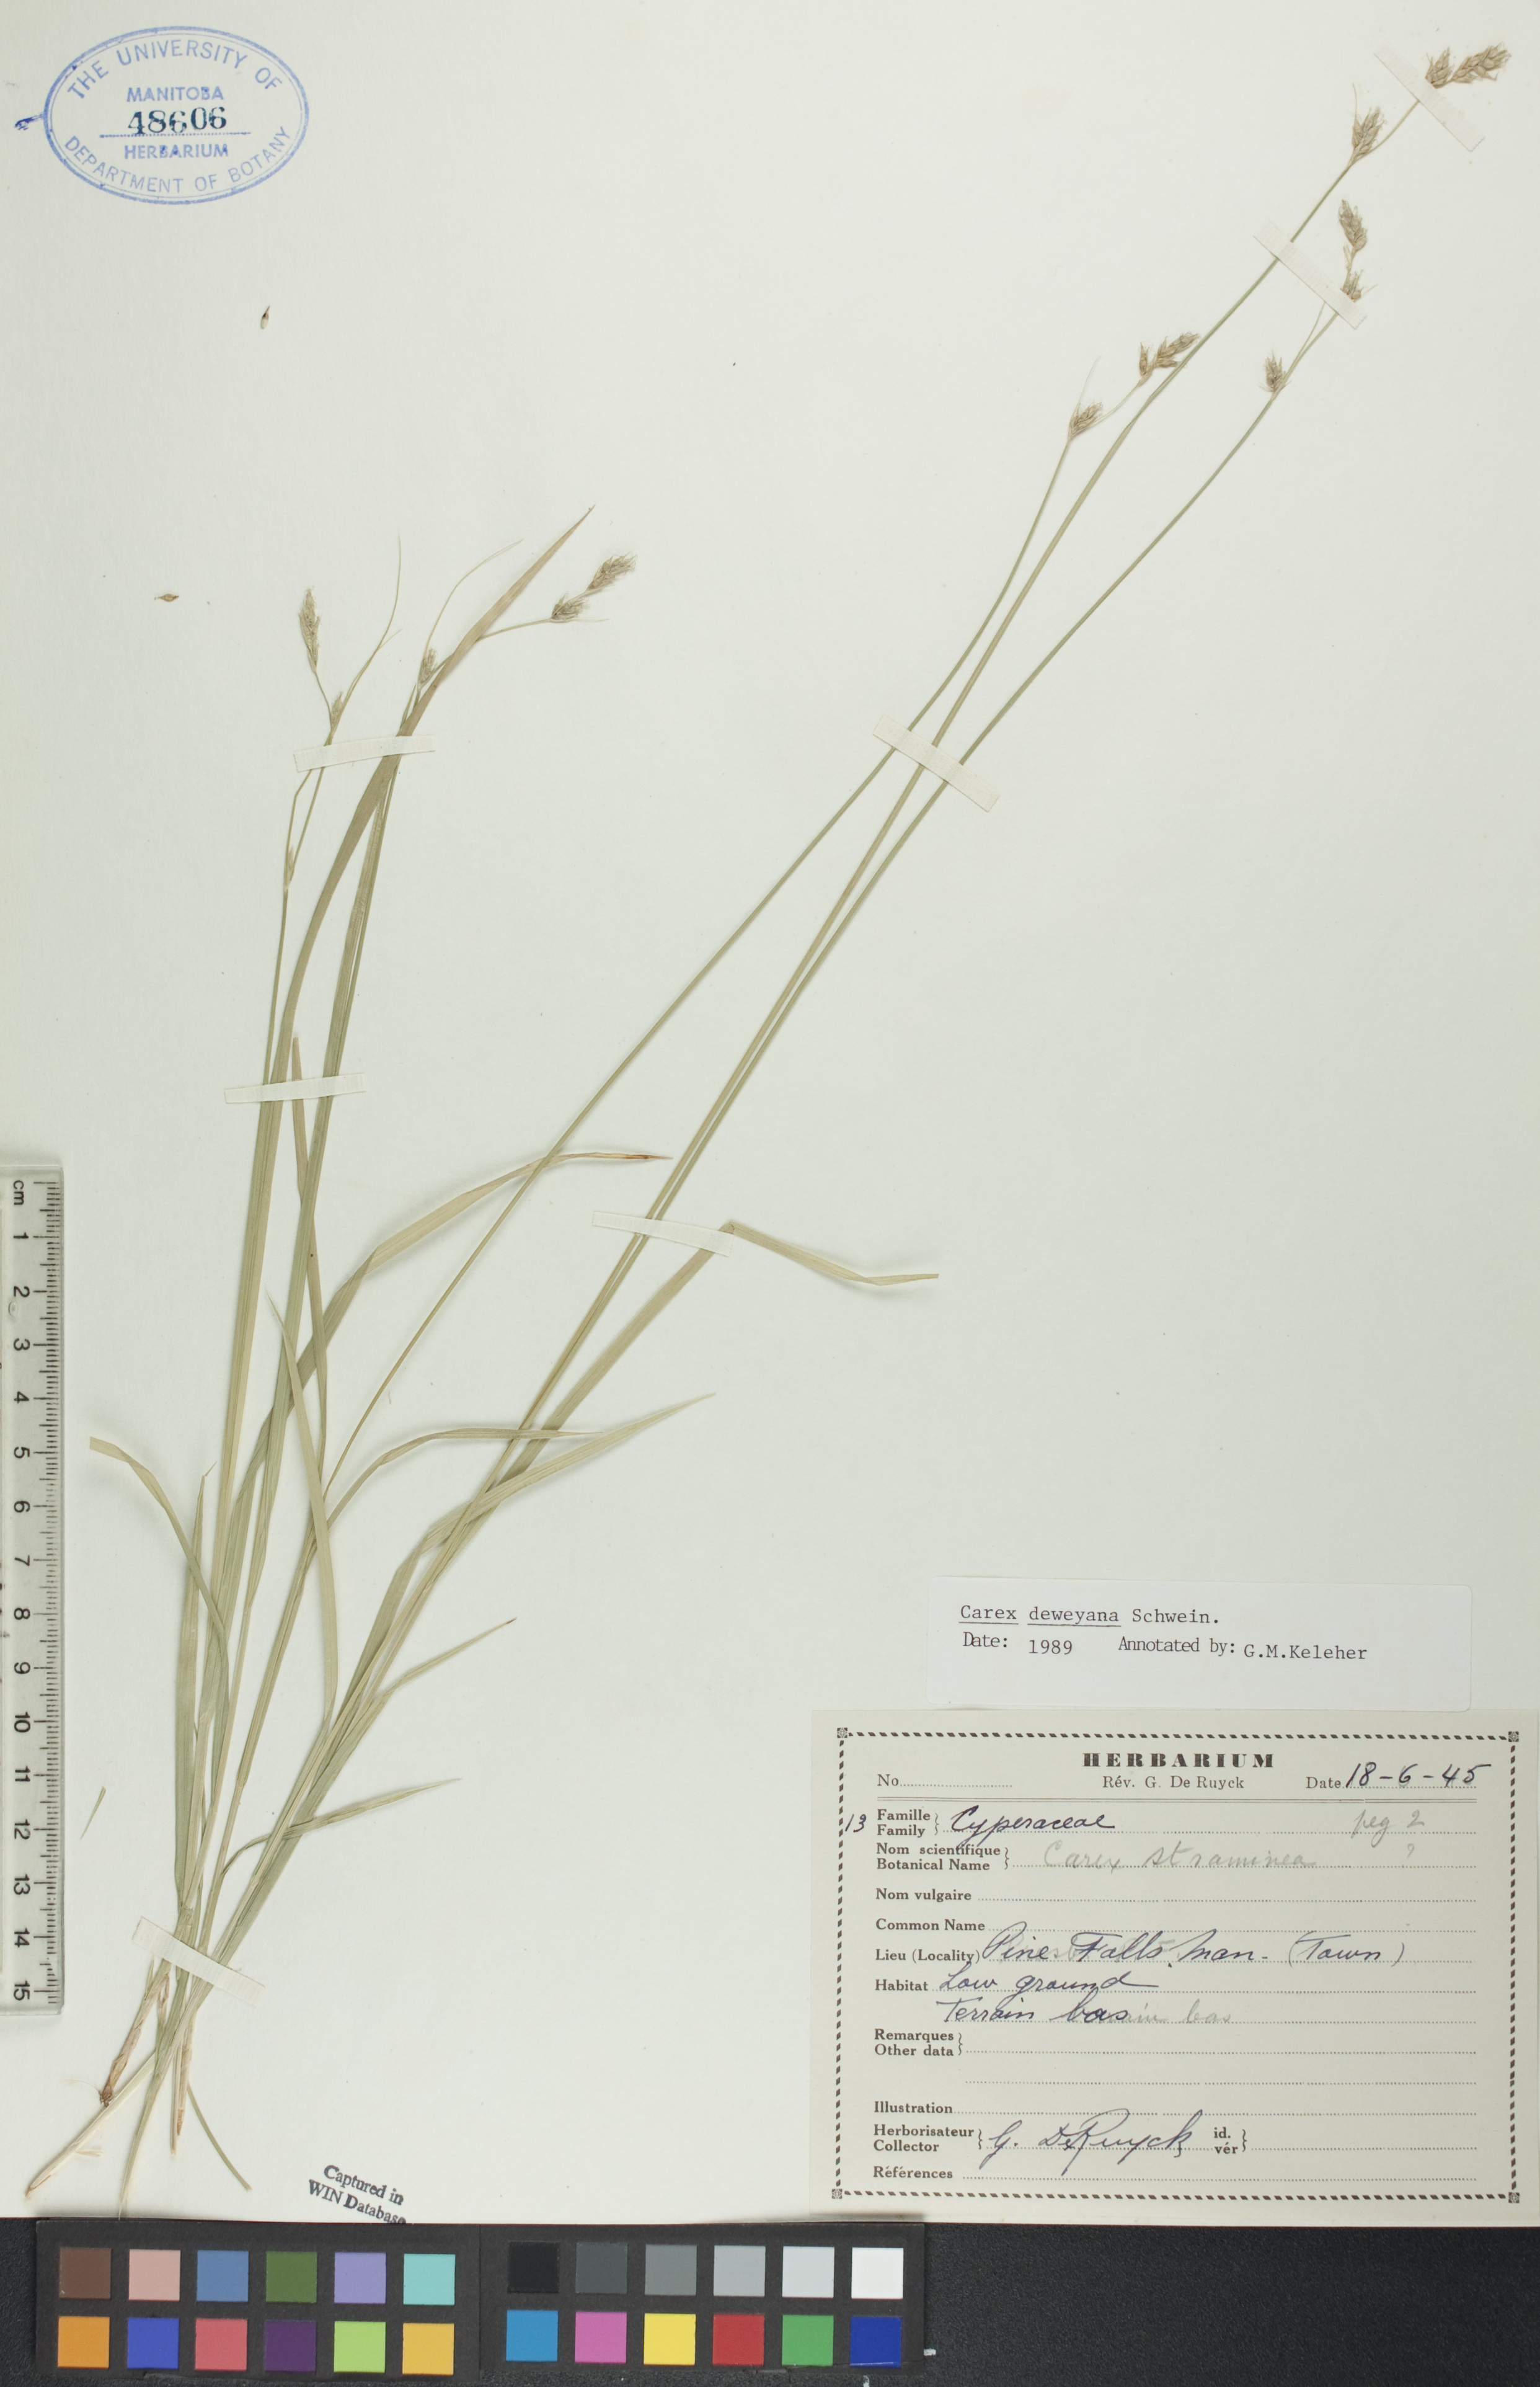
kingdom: Plantae
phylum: Tracheophyta
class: Liliopsida
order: Poales
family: Cyperaceae
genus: Carex
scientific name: Carex deweyana
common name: Dewey's sedge
